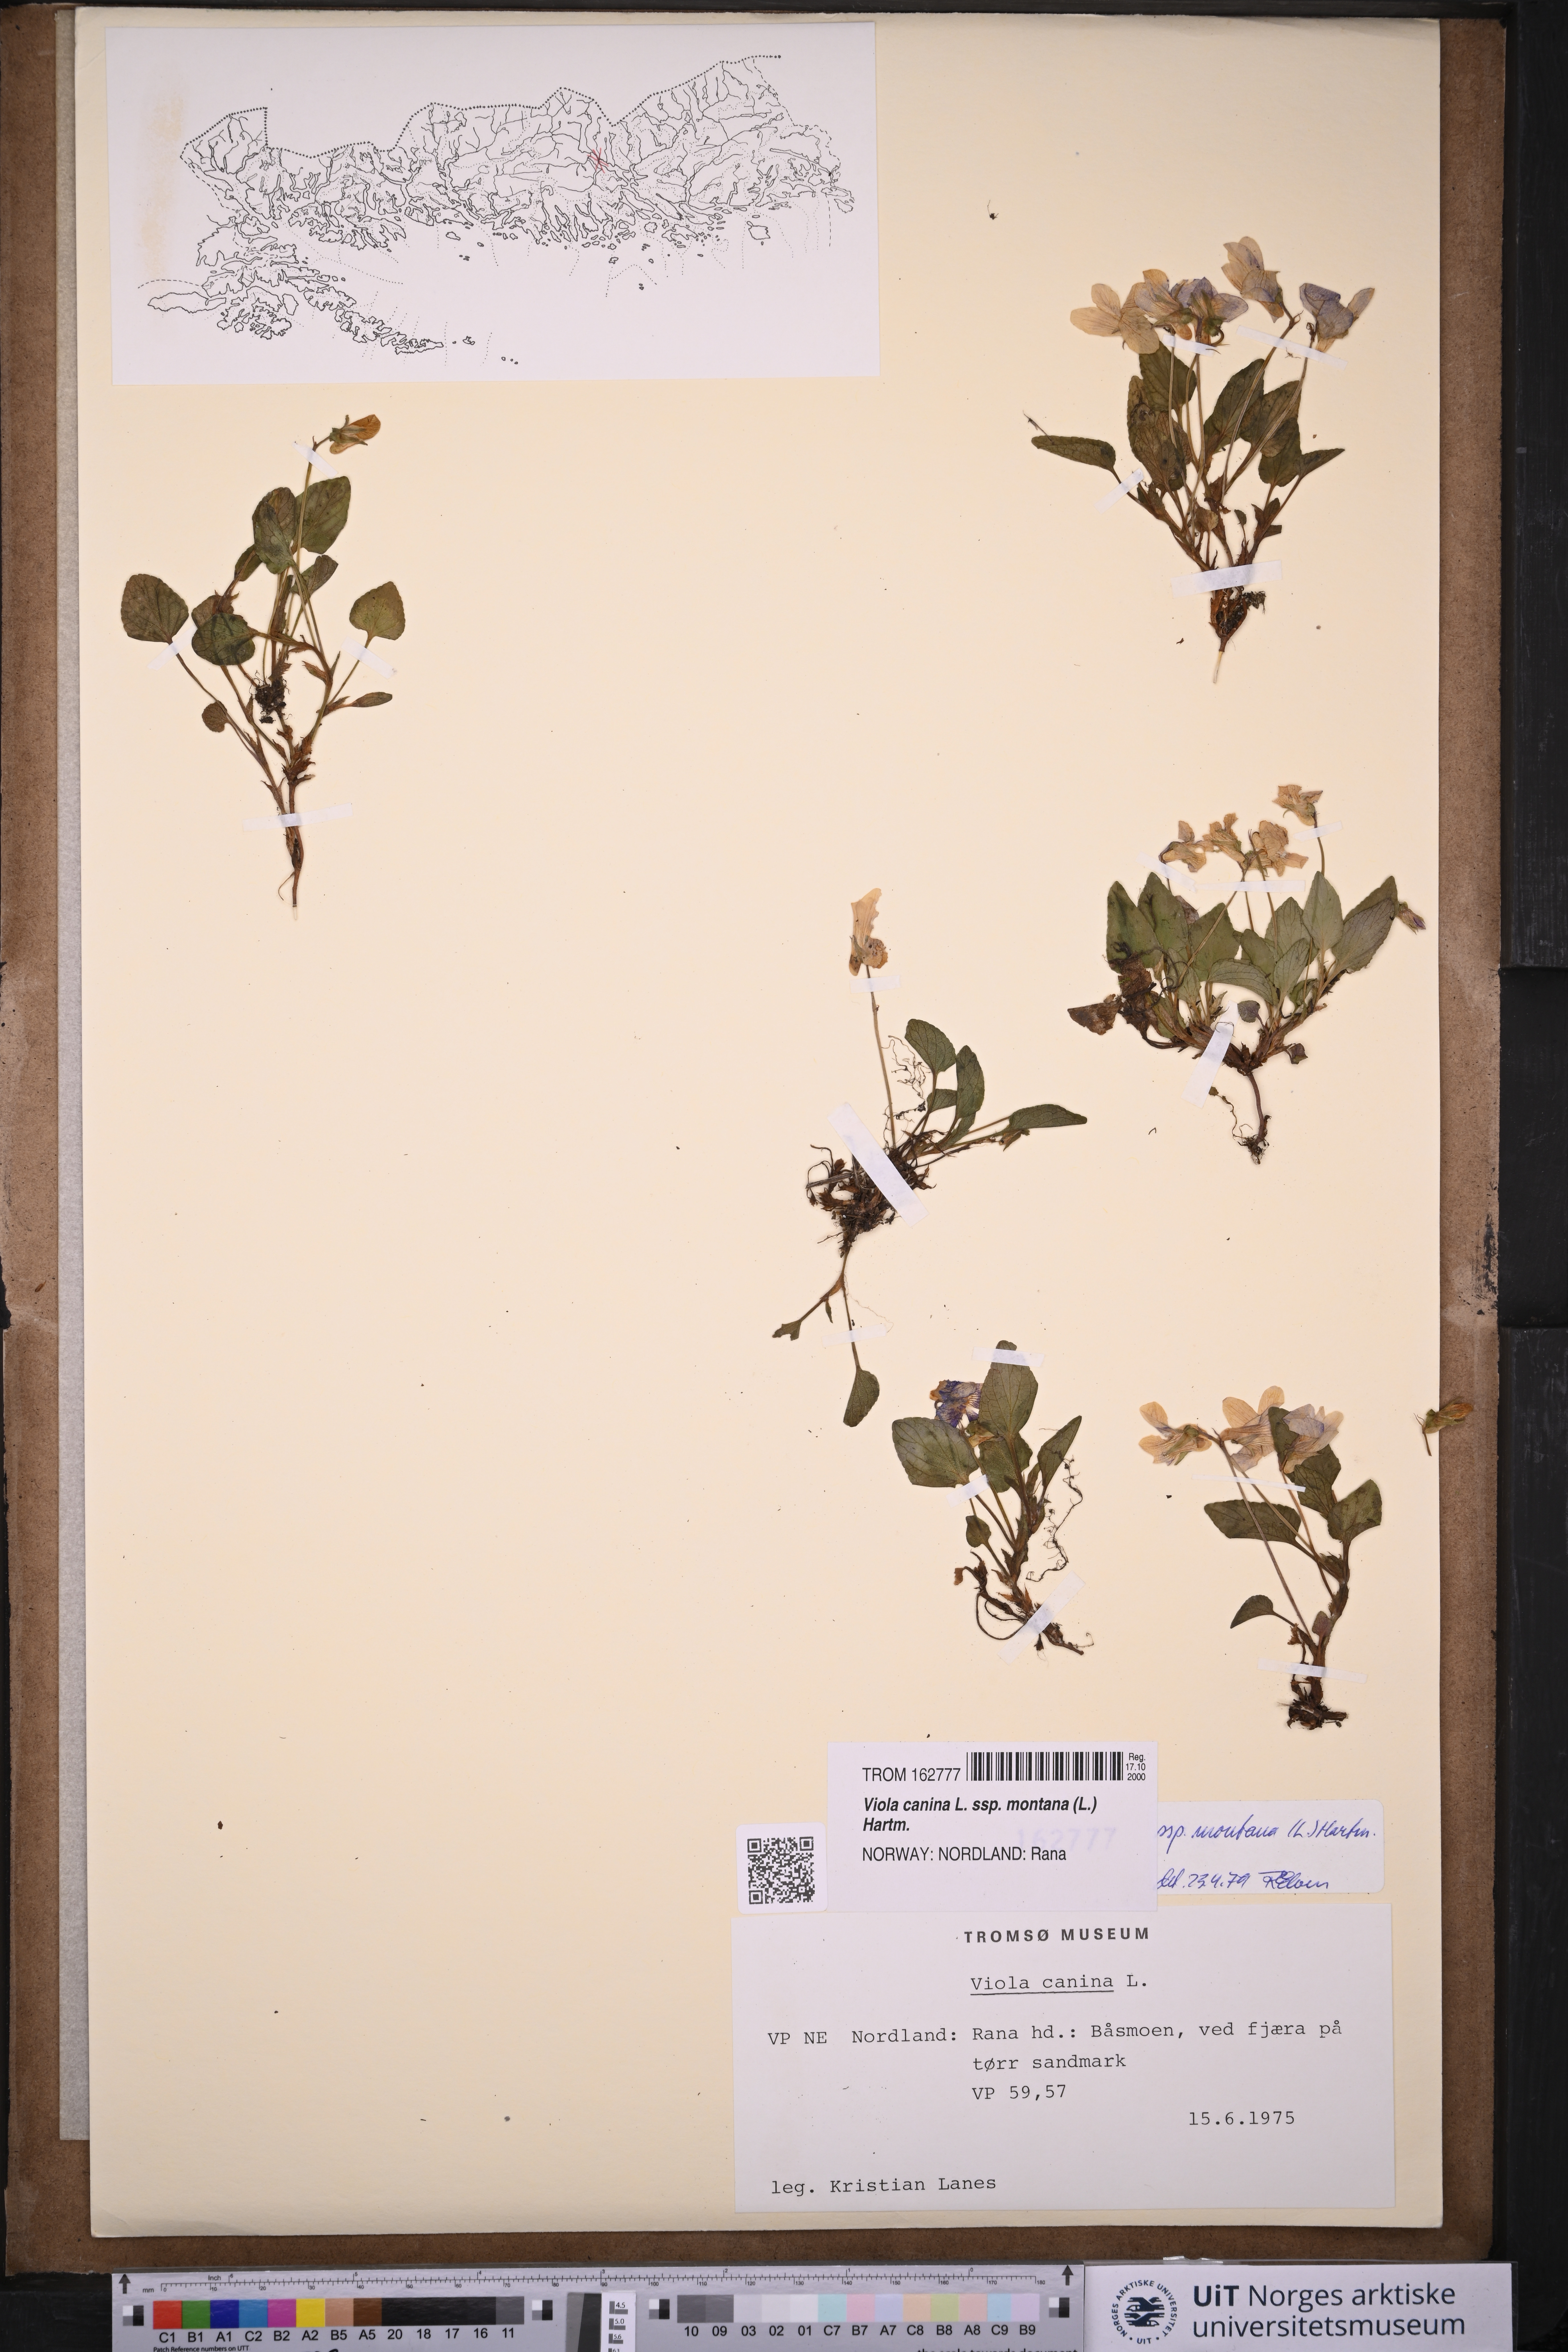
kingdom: Plantae
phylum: Tracheophyta
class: Magnoliopsida
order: Malpighiales
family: Violaceae
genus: Viola
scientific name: Viola ruppii
